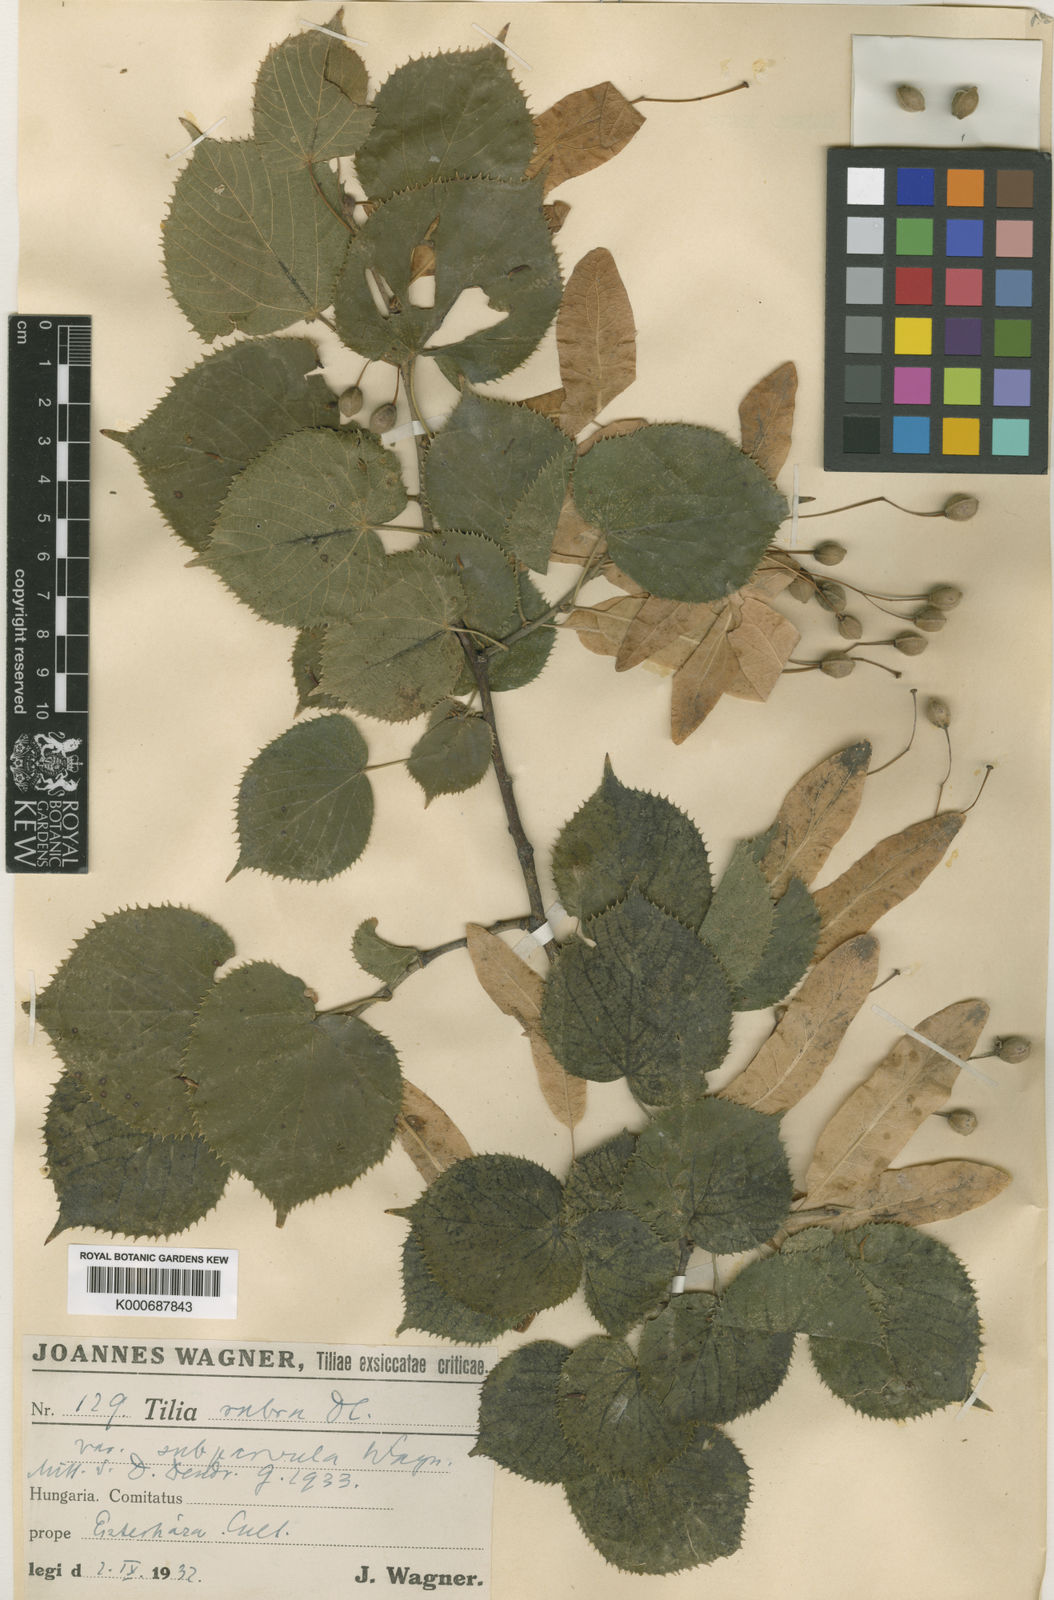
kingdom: Plantae
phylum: Tracheophyta
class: Magnoliopsida
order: Malvales
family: Malvaceae
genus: Tilia
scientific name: Tilia platyphyllos
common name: Large-leaved lime
